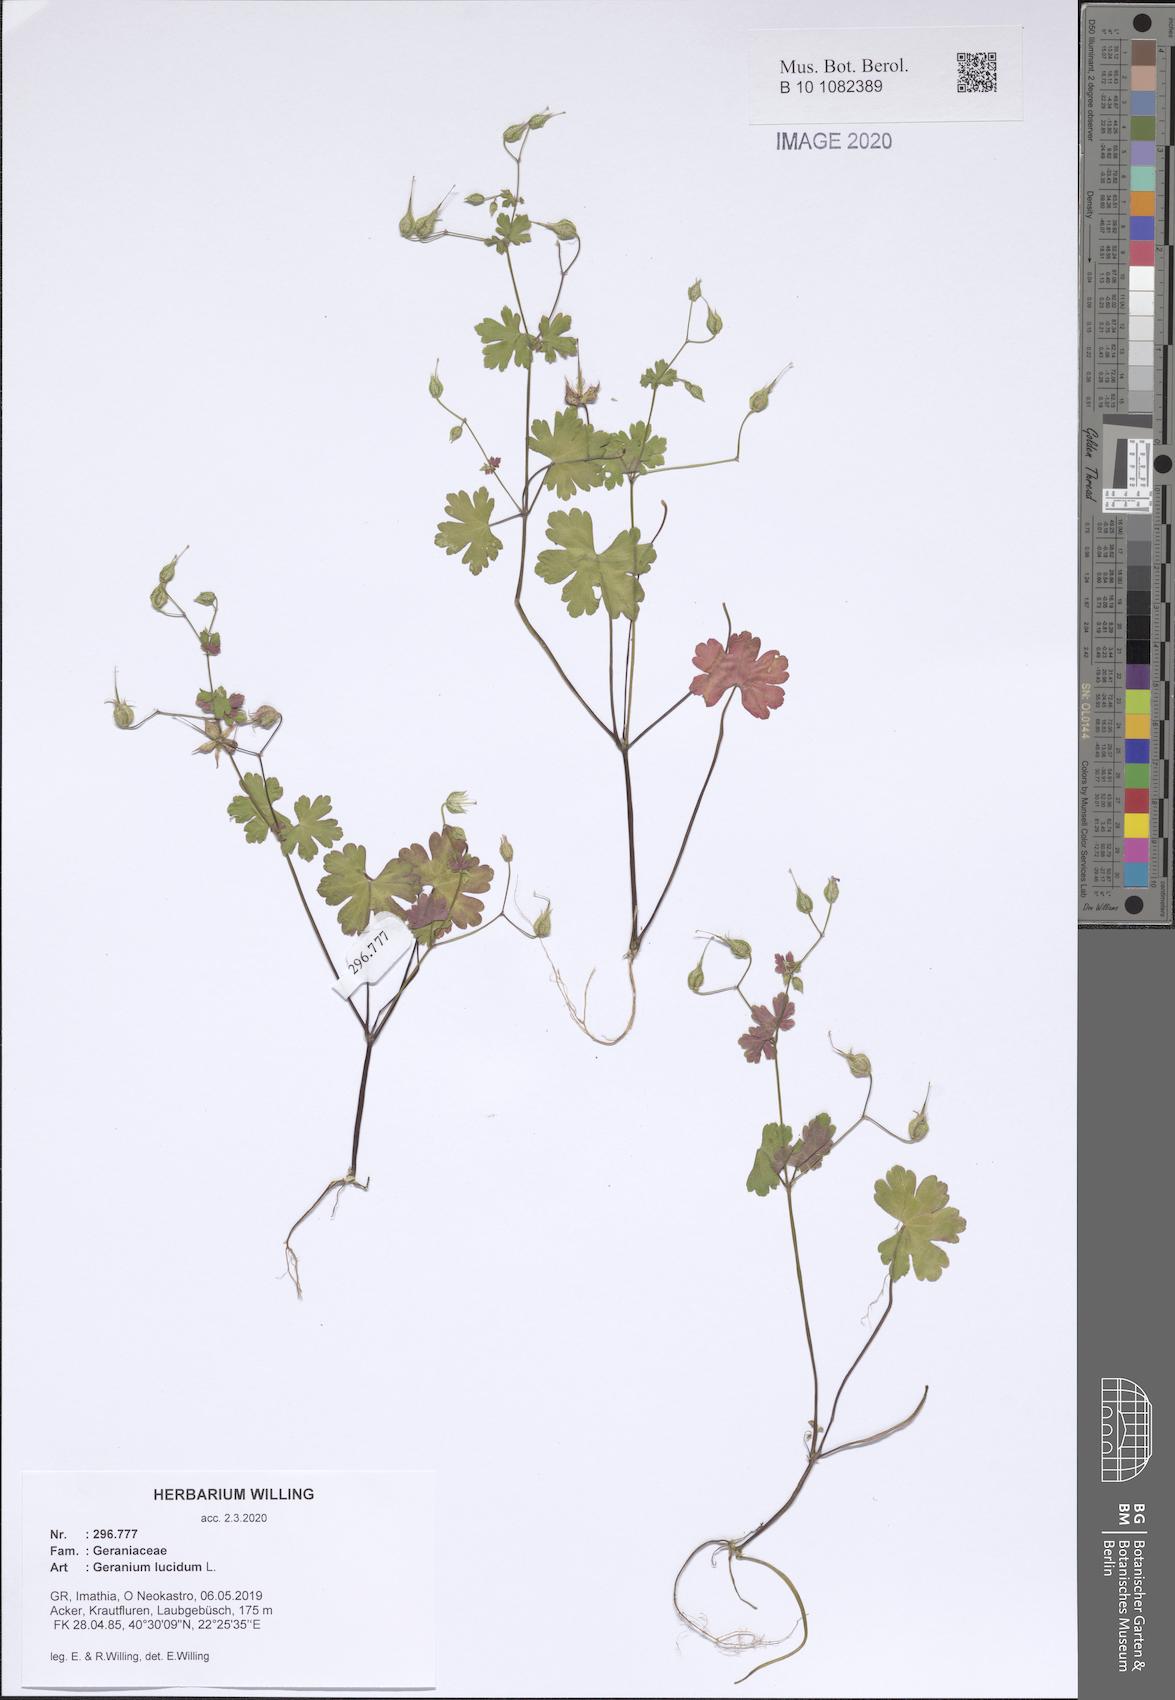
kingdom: Plantae
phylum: Tracheophyta
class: Magnoliopsida
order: Geraniales
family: Geraniaceae
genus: Geranium
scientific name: Geranium lucidum
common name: Shining crane's-bill
